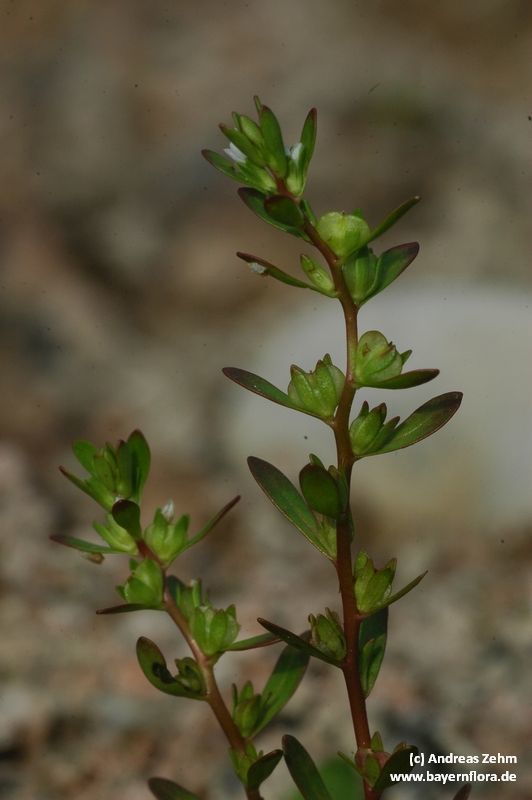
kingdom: Plantae
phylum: Tracheophyta
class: Magnoliopsida
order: Lamiales
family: Plantaginaceae
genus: Veronica
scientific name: Veronica peregrina
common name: Neckweed
